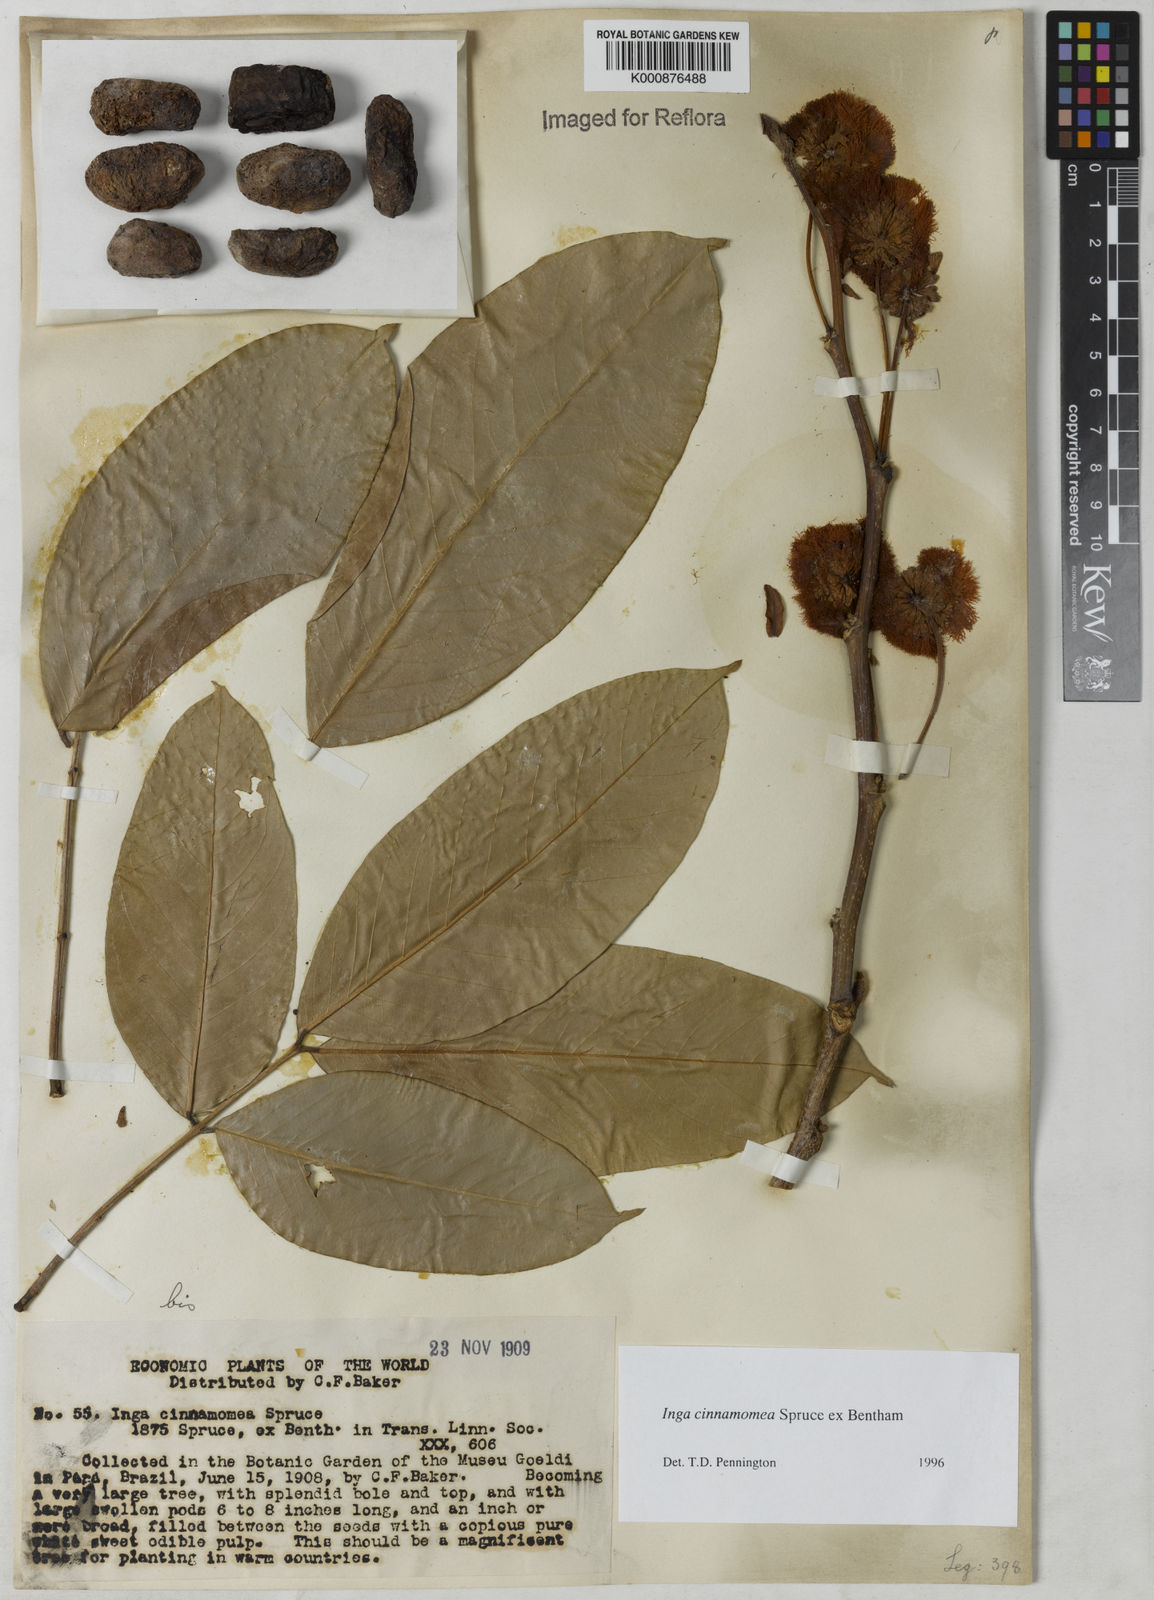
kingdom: Plantae
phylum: Tracheophyta
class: Magnoliopsida
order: Fabales
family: Fabaceae
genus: Inga
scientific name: Inga cinnamomea
